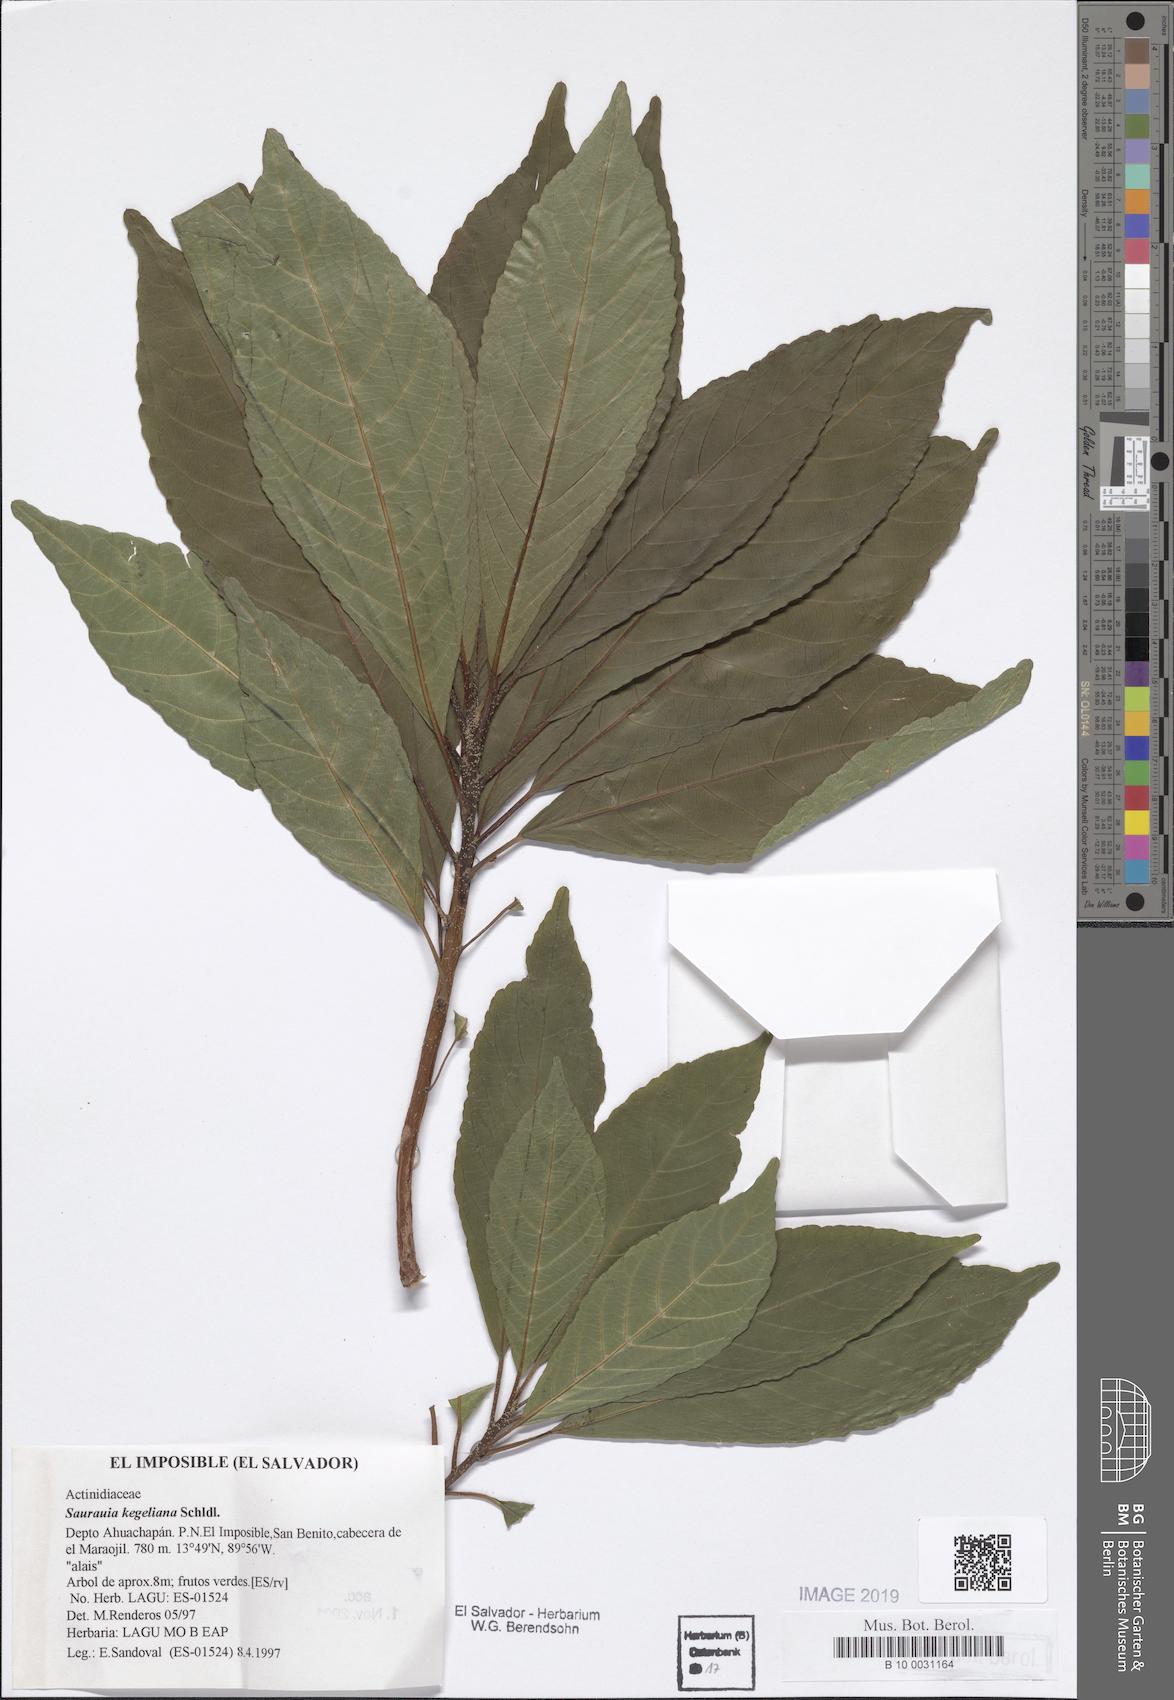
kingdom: Plantae
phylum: Tracheophyta
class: Magnoliopsida
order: Ericales
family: Actinidiaceae
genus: Saurauia
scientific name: Saurauia kegeliana
